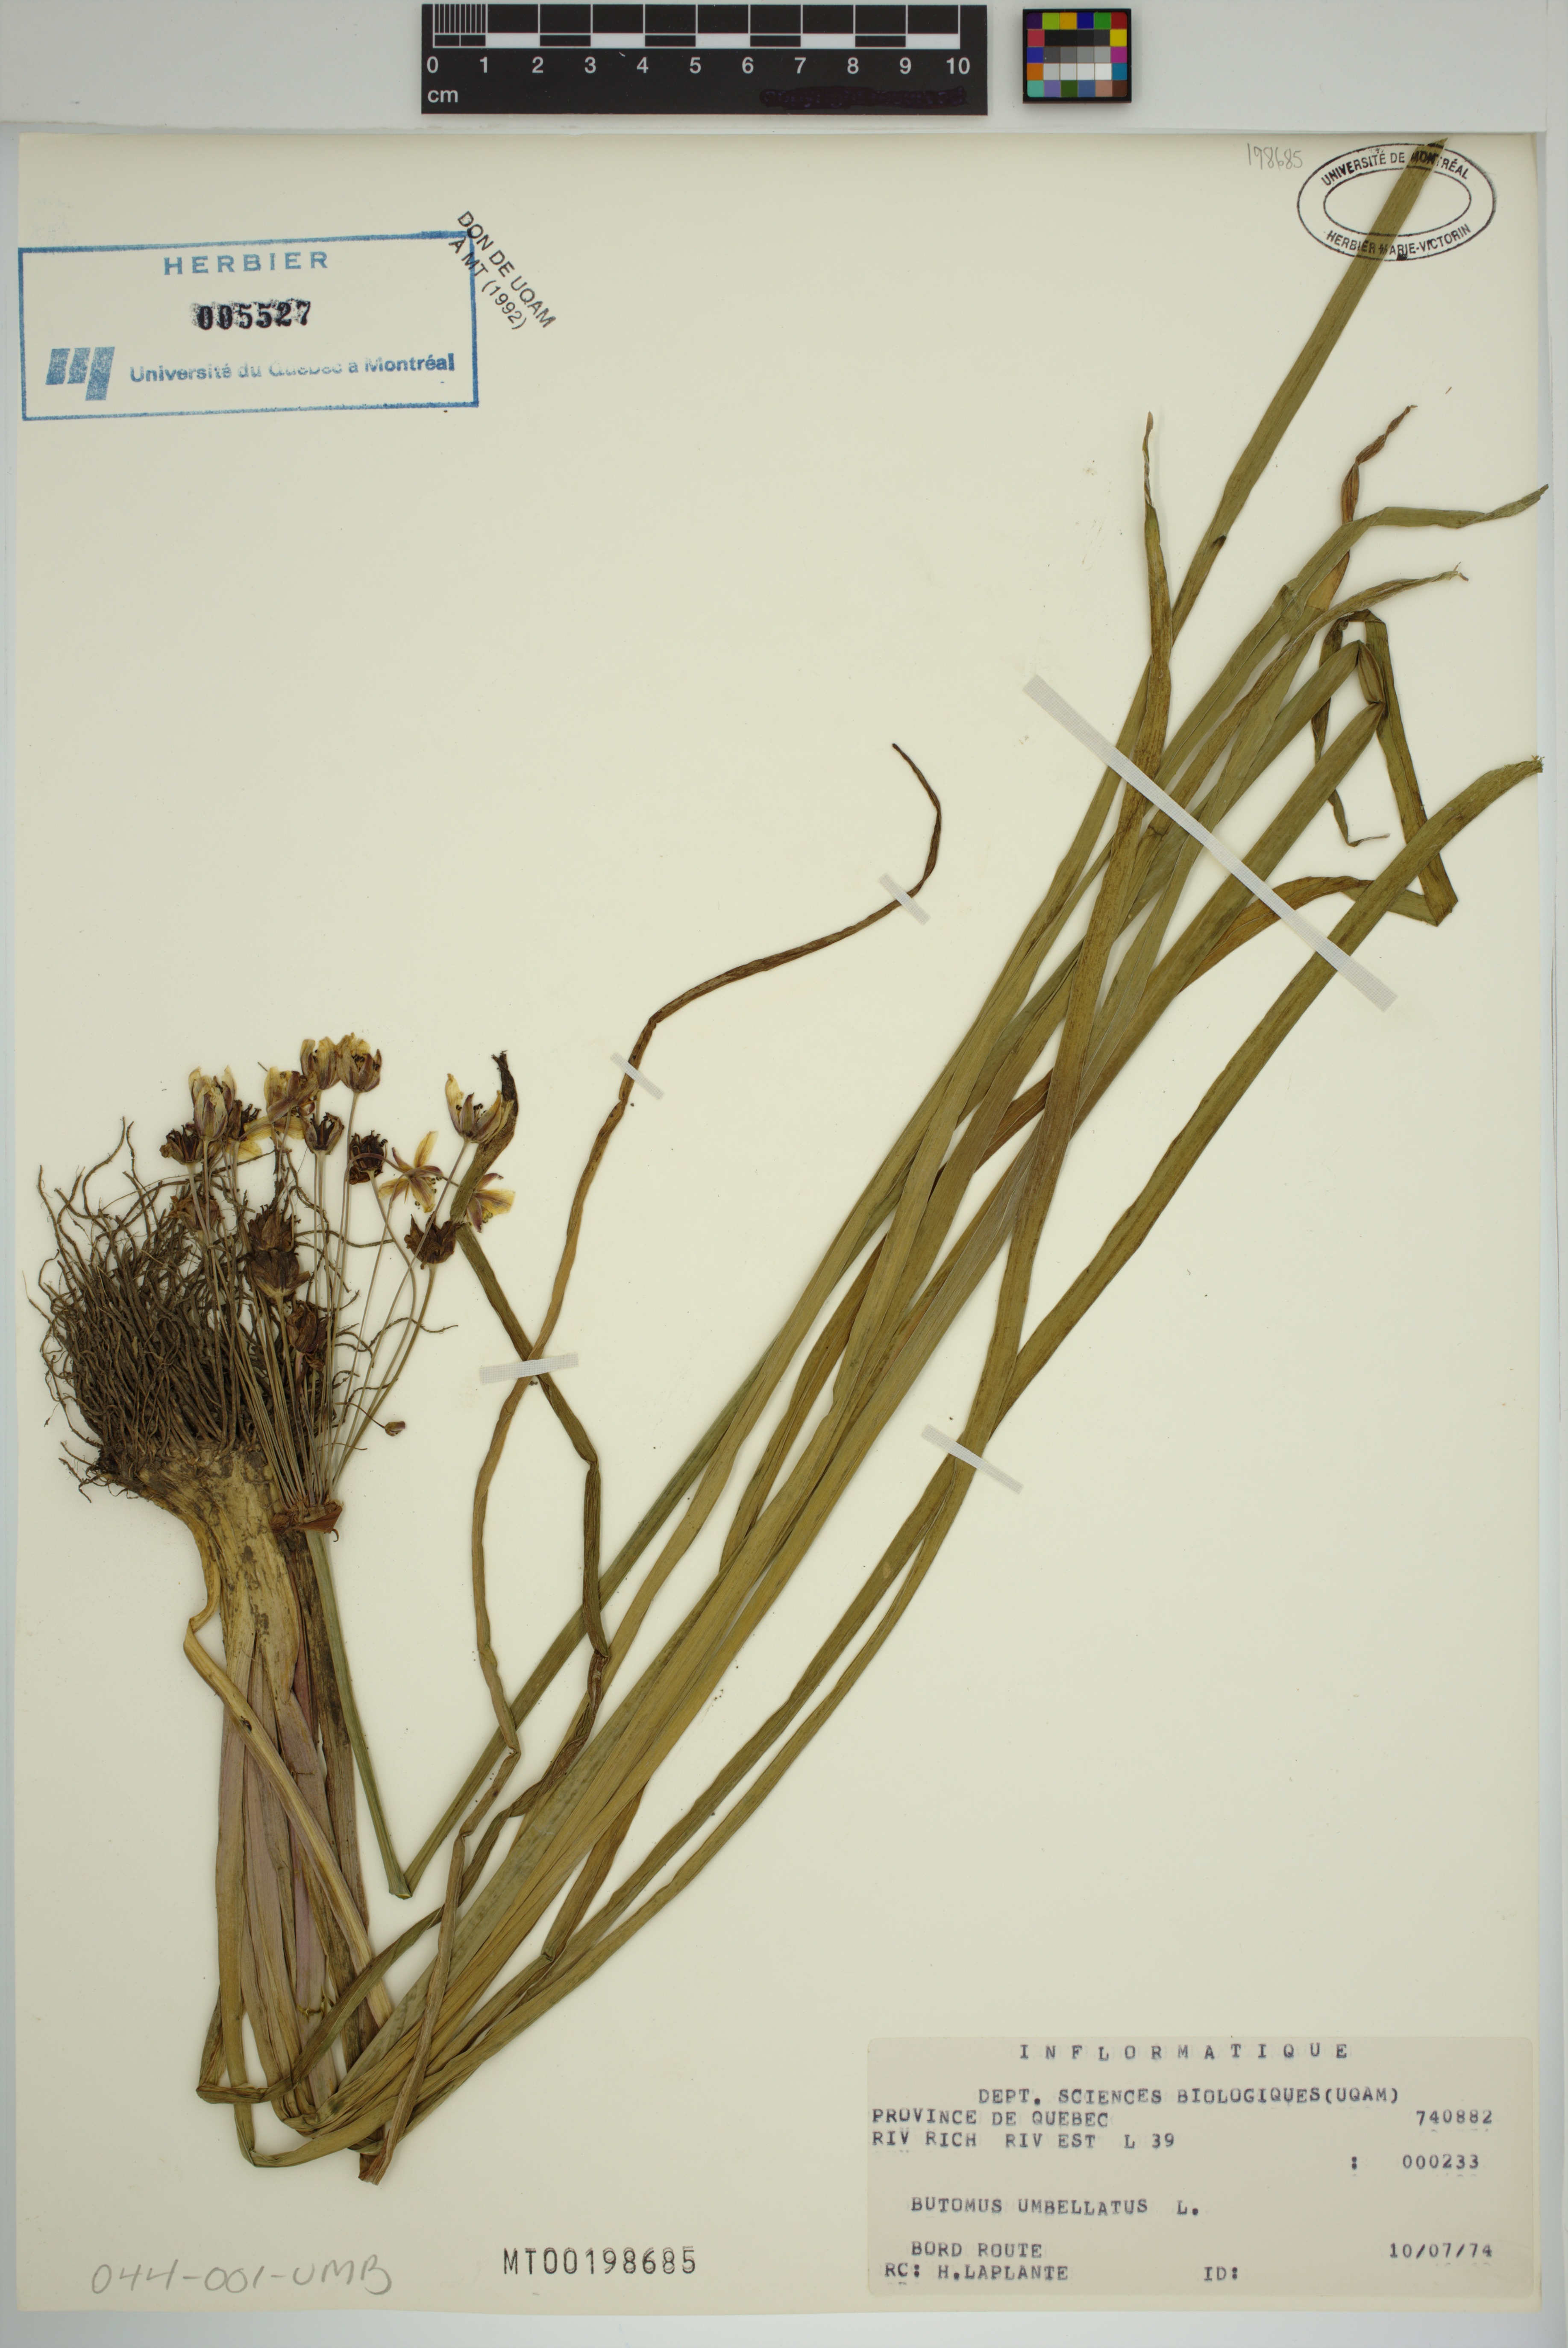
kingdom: Plantae
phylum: Tracheophyta
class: Liliopsida
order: Alismatales
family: Butomaceae
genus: Butomus
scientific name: Butomus umbellatus
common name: Flowering-rush
